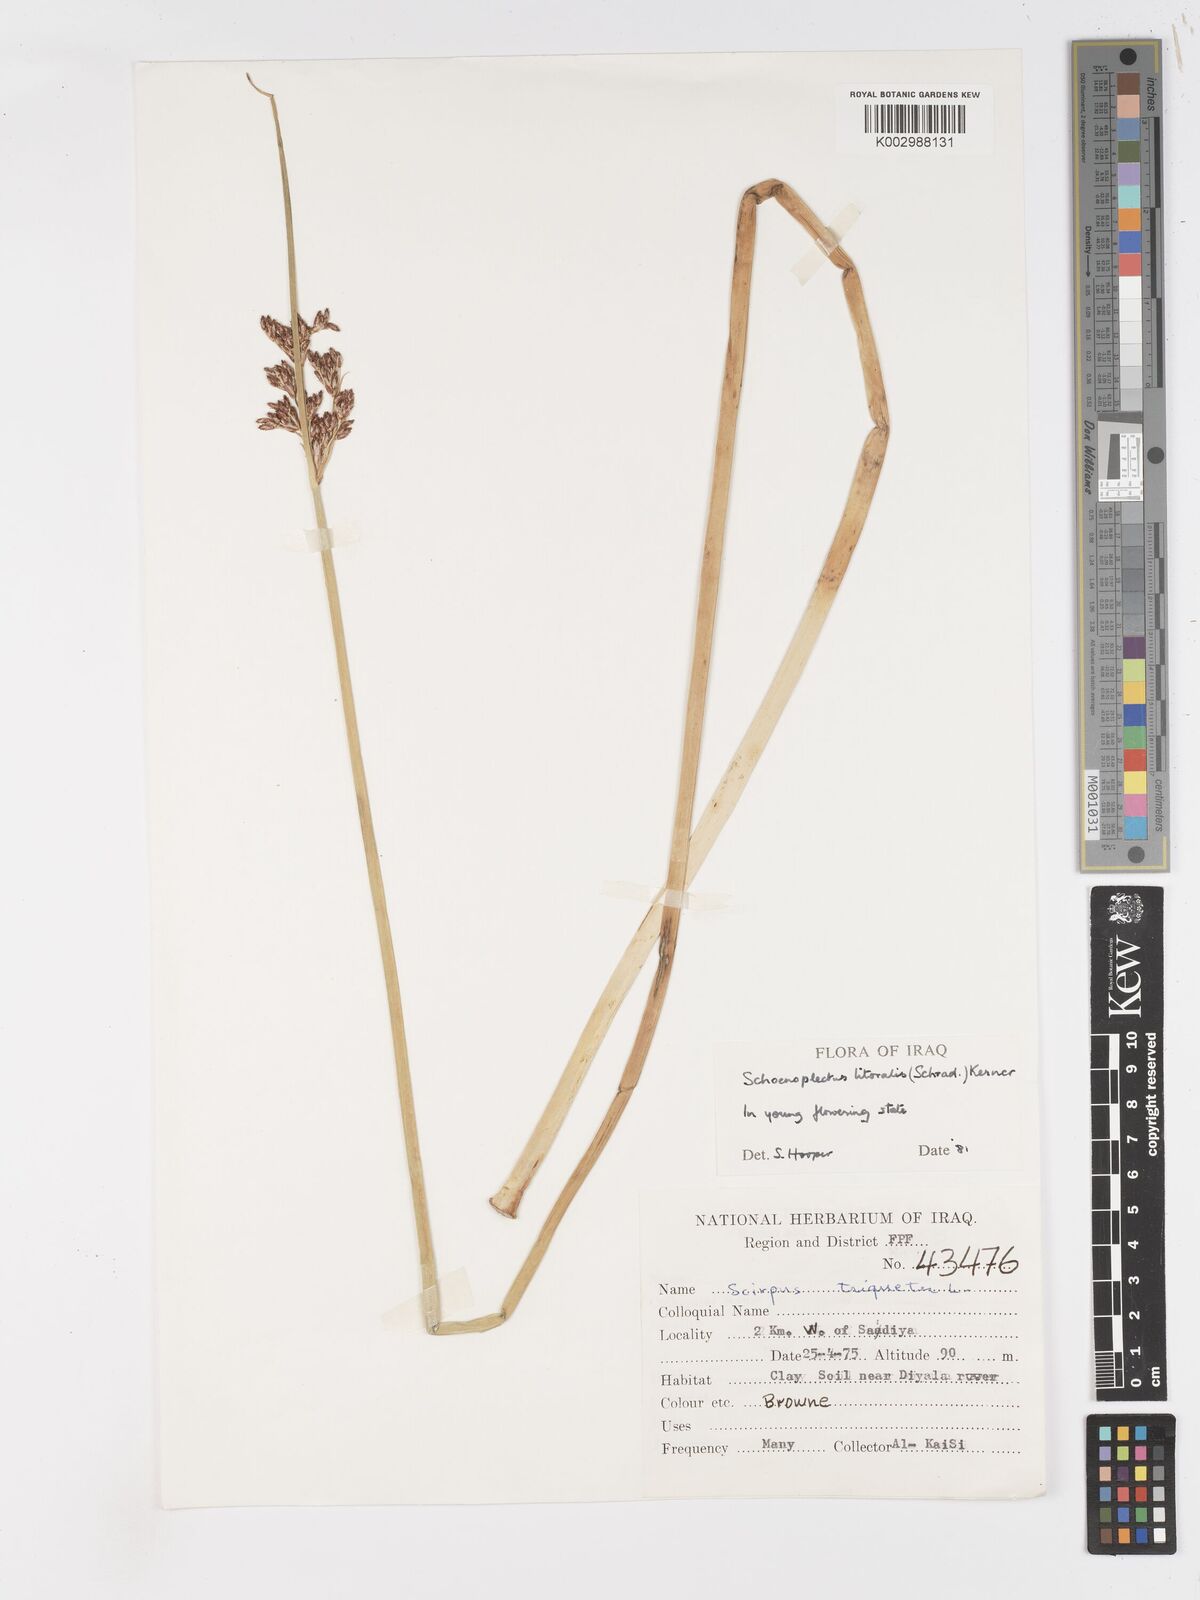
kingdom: Plantae
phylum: Tracheophyta
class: Liliopsida
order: Poales
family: Cyperaceae
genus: Schoenoplectus
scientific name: Schoenoplectus litoralis
